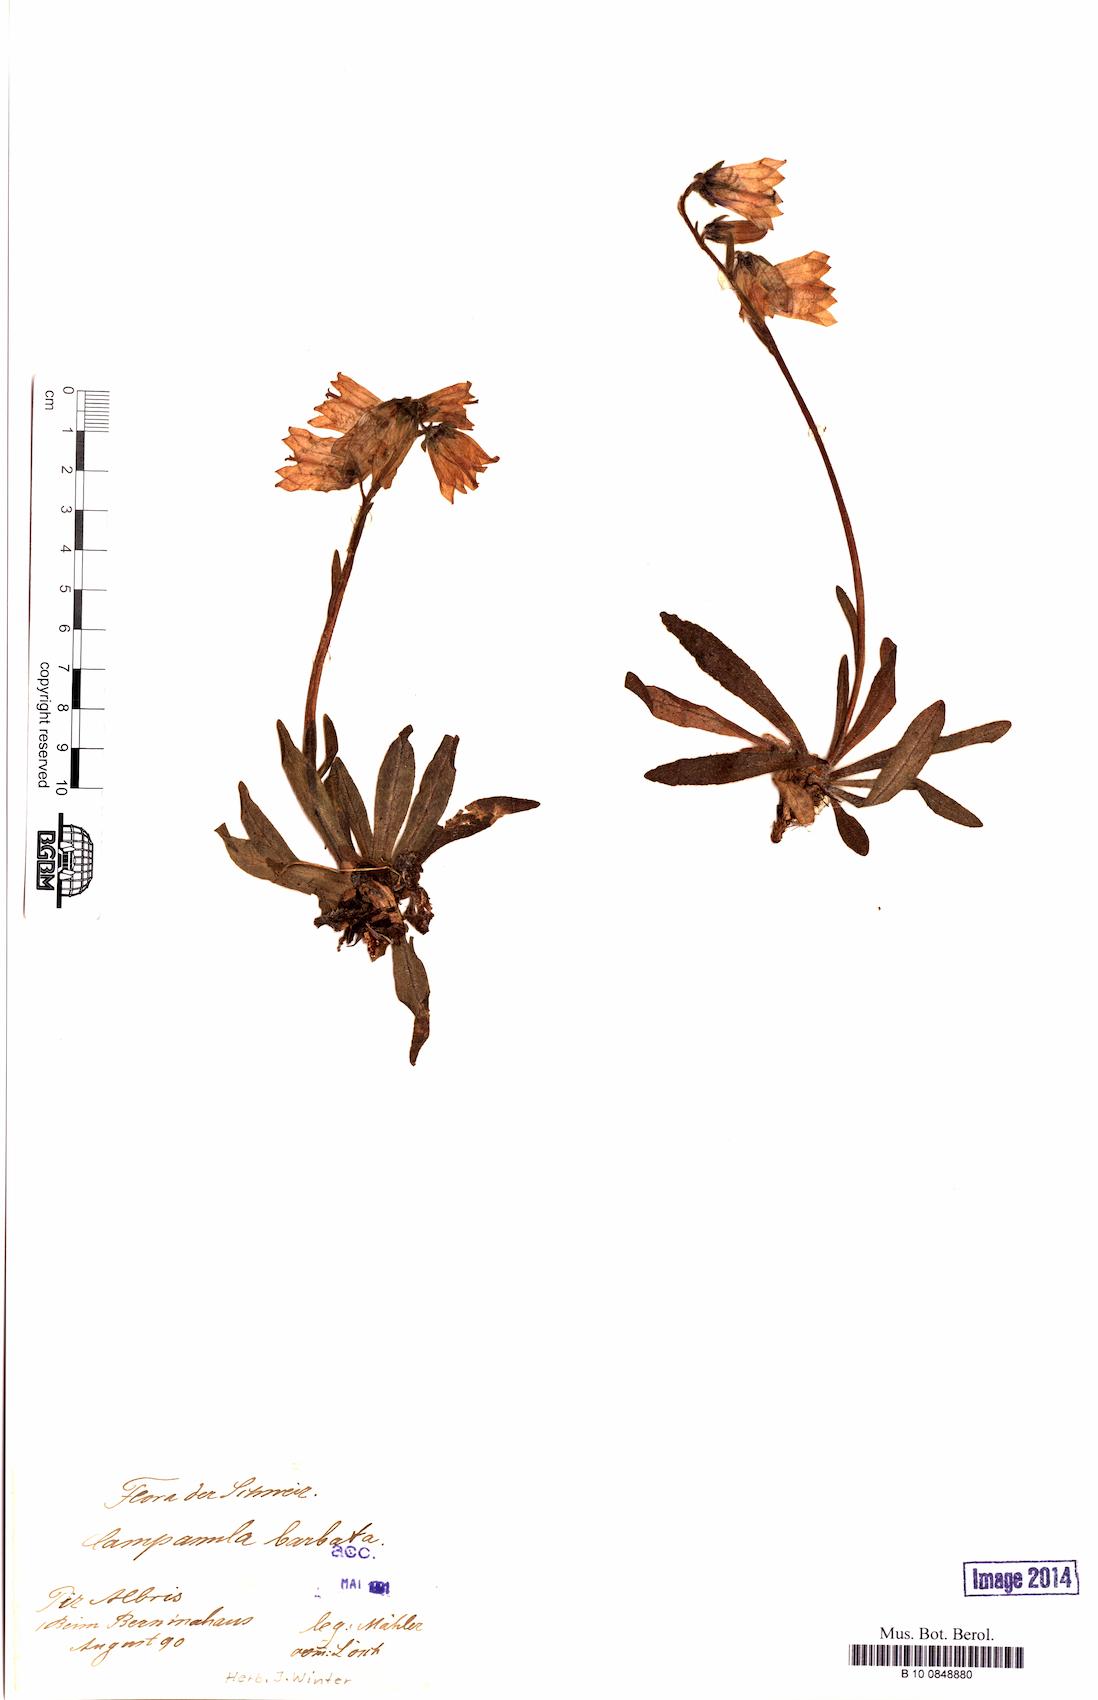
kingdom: Plantae
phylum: Tracheophyta
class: Magnoliopsida
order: Asterales
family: Campanulaceae
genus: Campanula
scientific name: Campanula barbata
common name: Bearded bellflower
